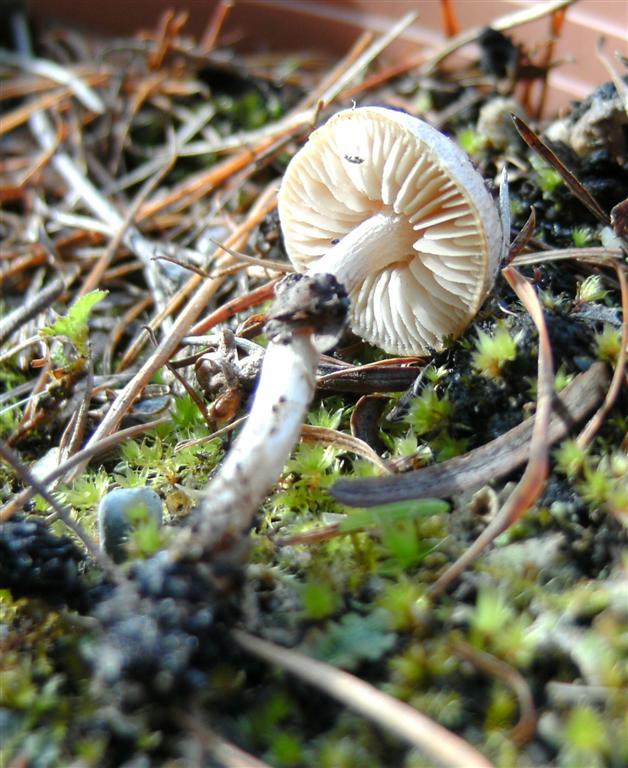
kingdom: Fungi
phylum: Basidiomycota
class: Agaricomycetes
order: Agaricales
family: Hymenogastraceae
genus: Hebeloma
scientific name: Hebeloma mesophaeum
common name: lerbrun tåreblad
